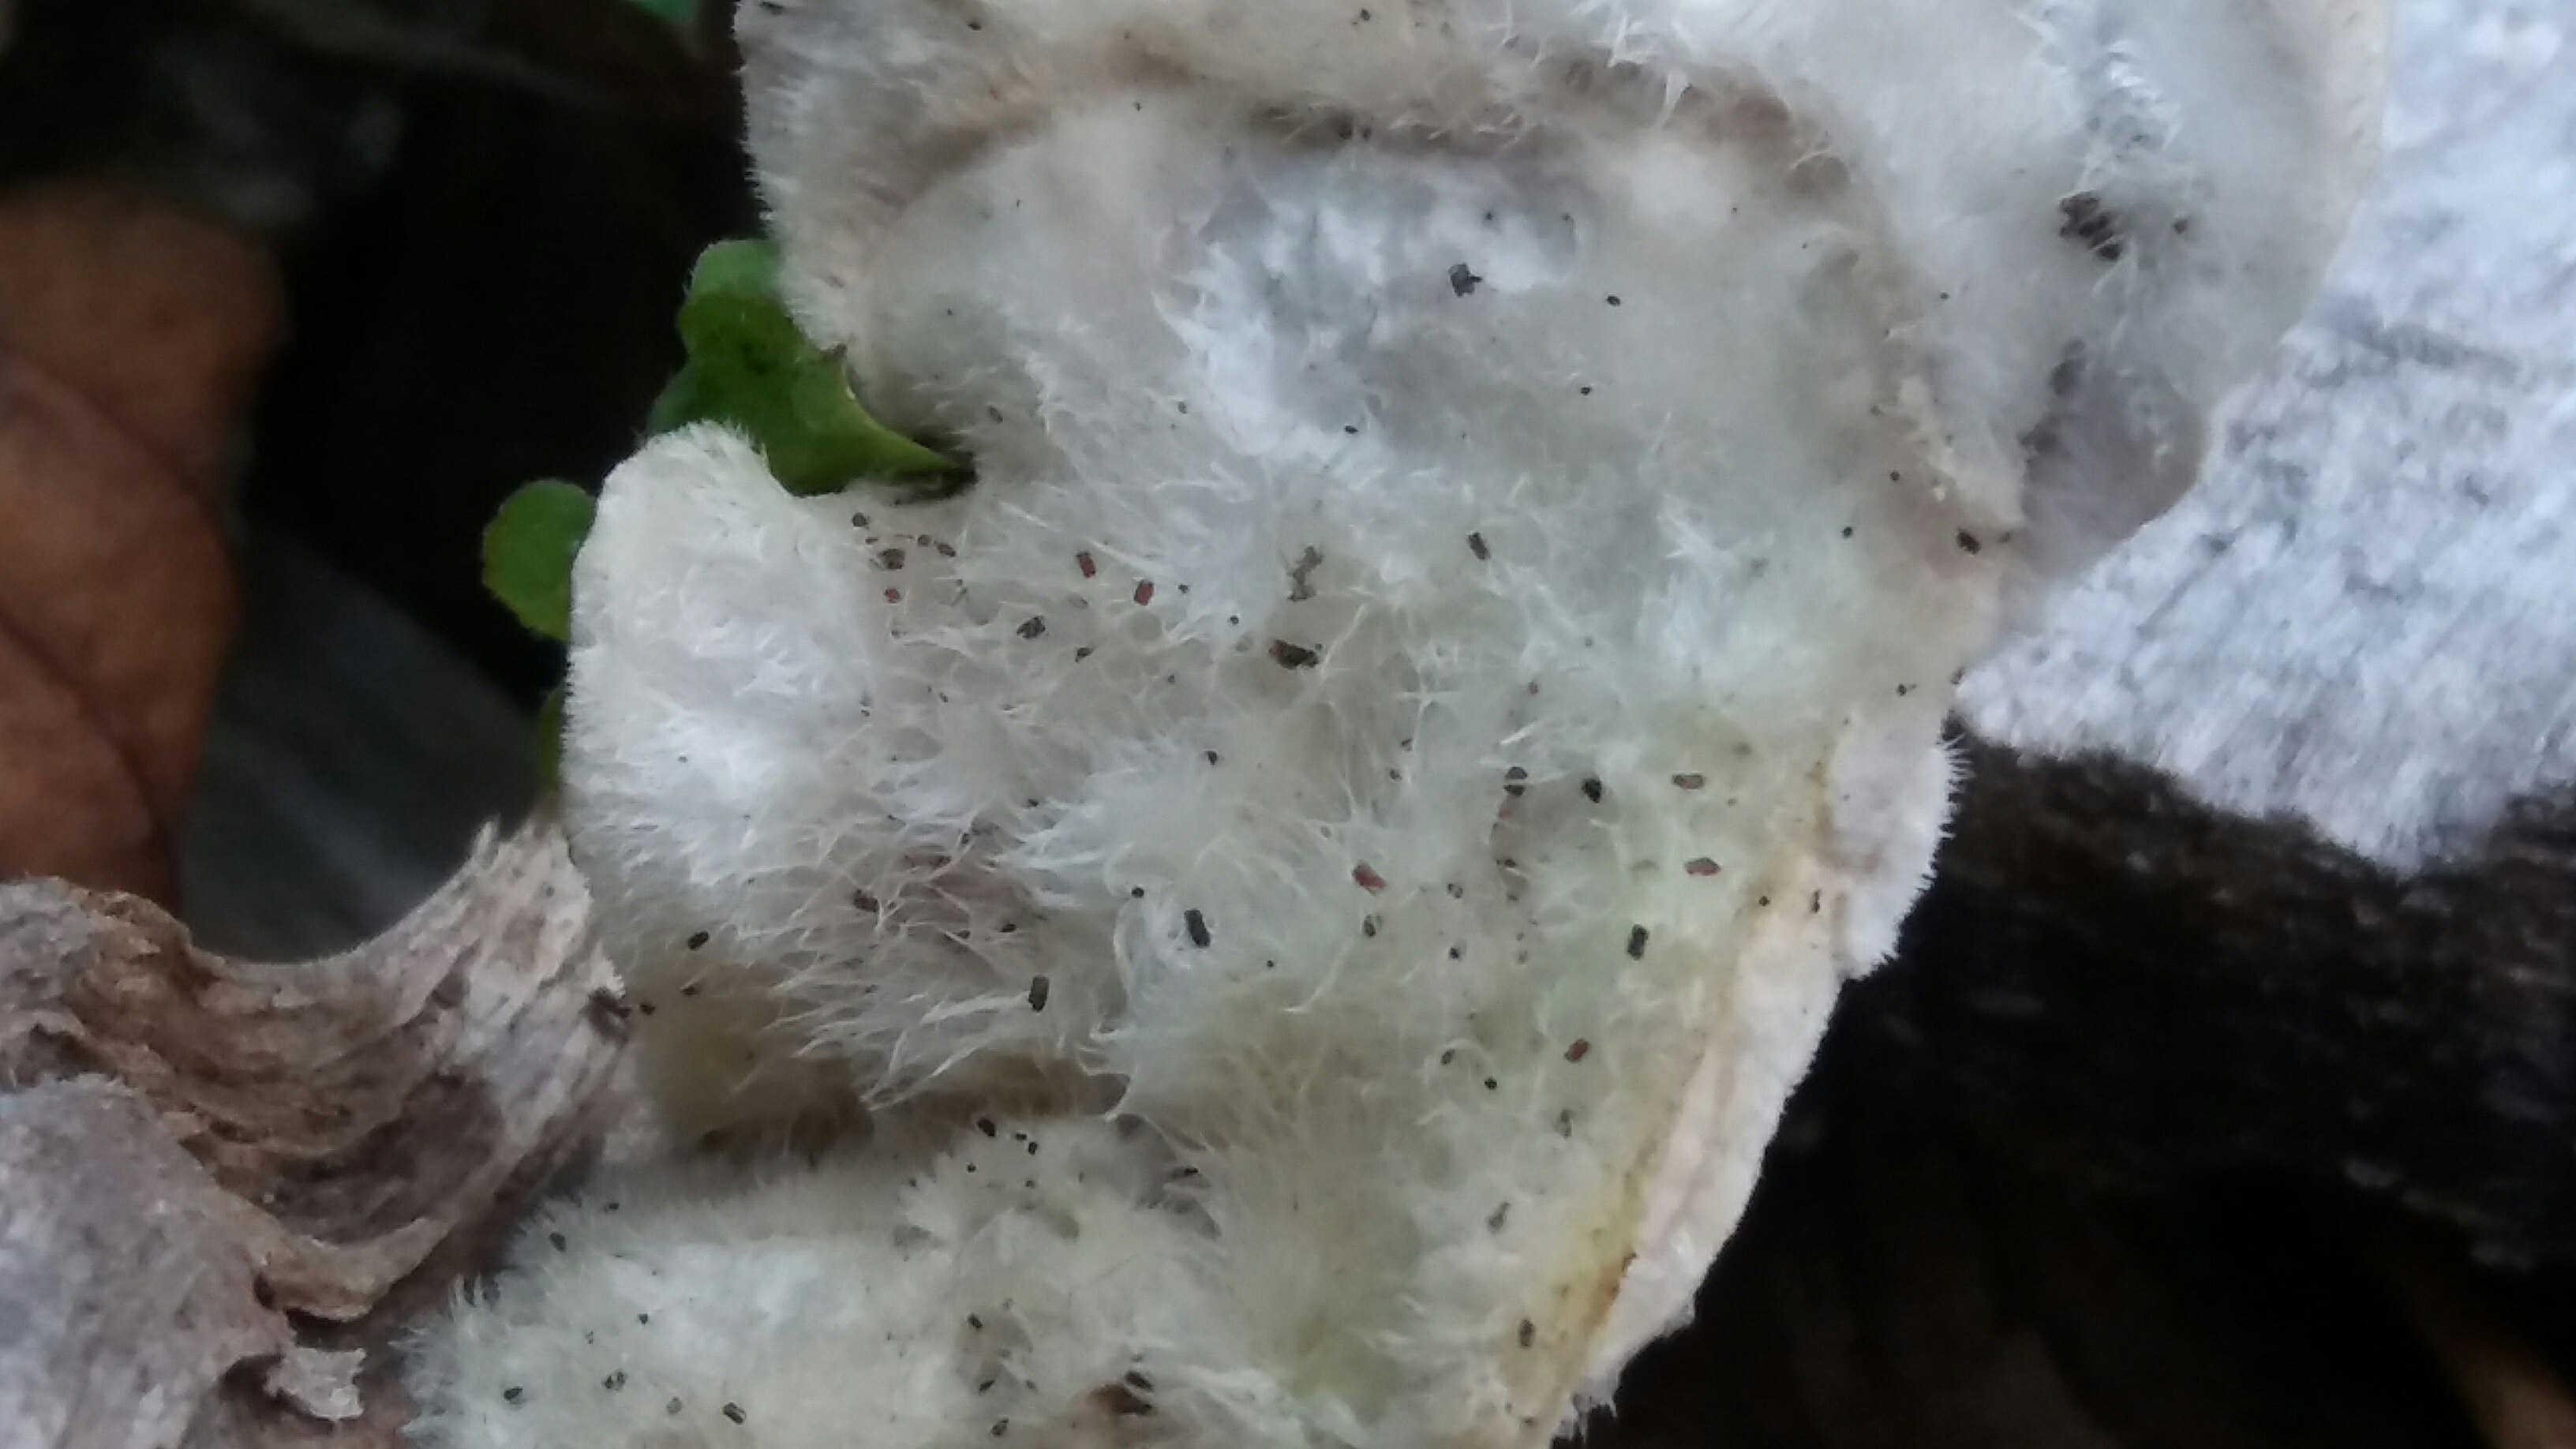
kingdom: Fungi
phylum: Basidiomycota
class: Agaricomycetes
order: Polyporales
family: Polyporaceae
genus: Trametes
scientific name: Trametes hirsuta
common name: håret læderporesvamp
